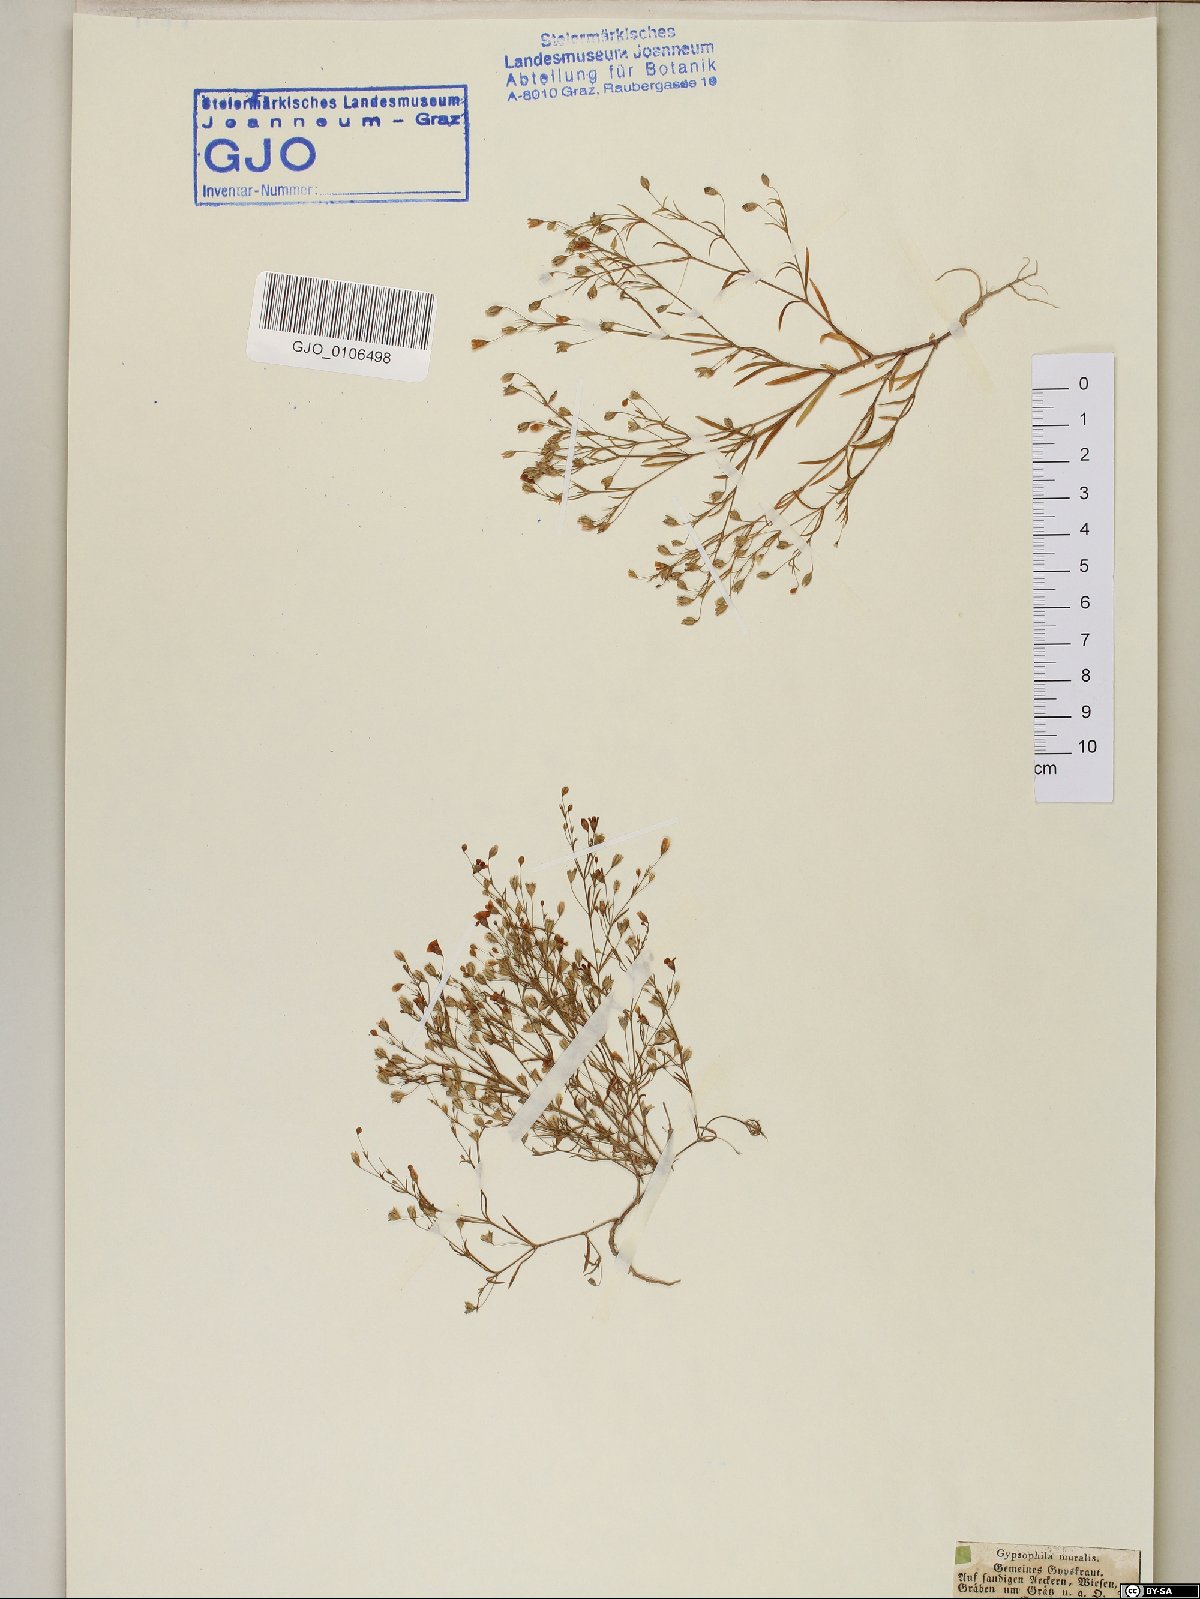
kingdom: Plantae
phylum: Tracheophyta
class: Magnoliopsida
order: Caryophyllales
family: Caryophyllaceae
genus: Psammophiliella
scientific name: Psammophiliella muralis
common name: Cushion baby's-breath
